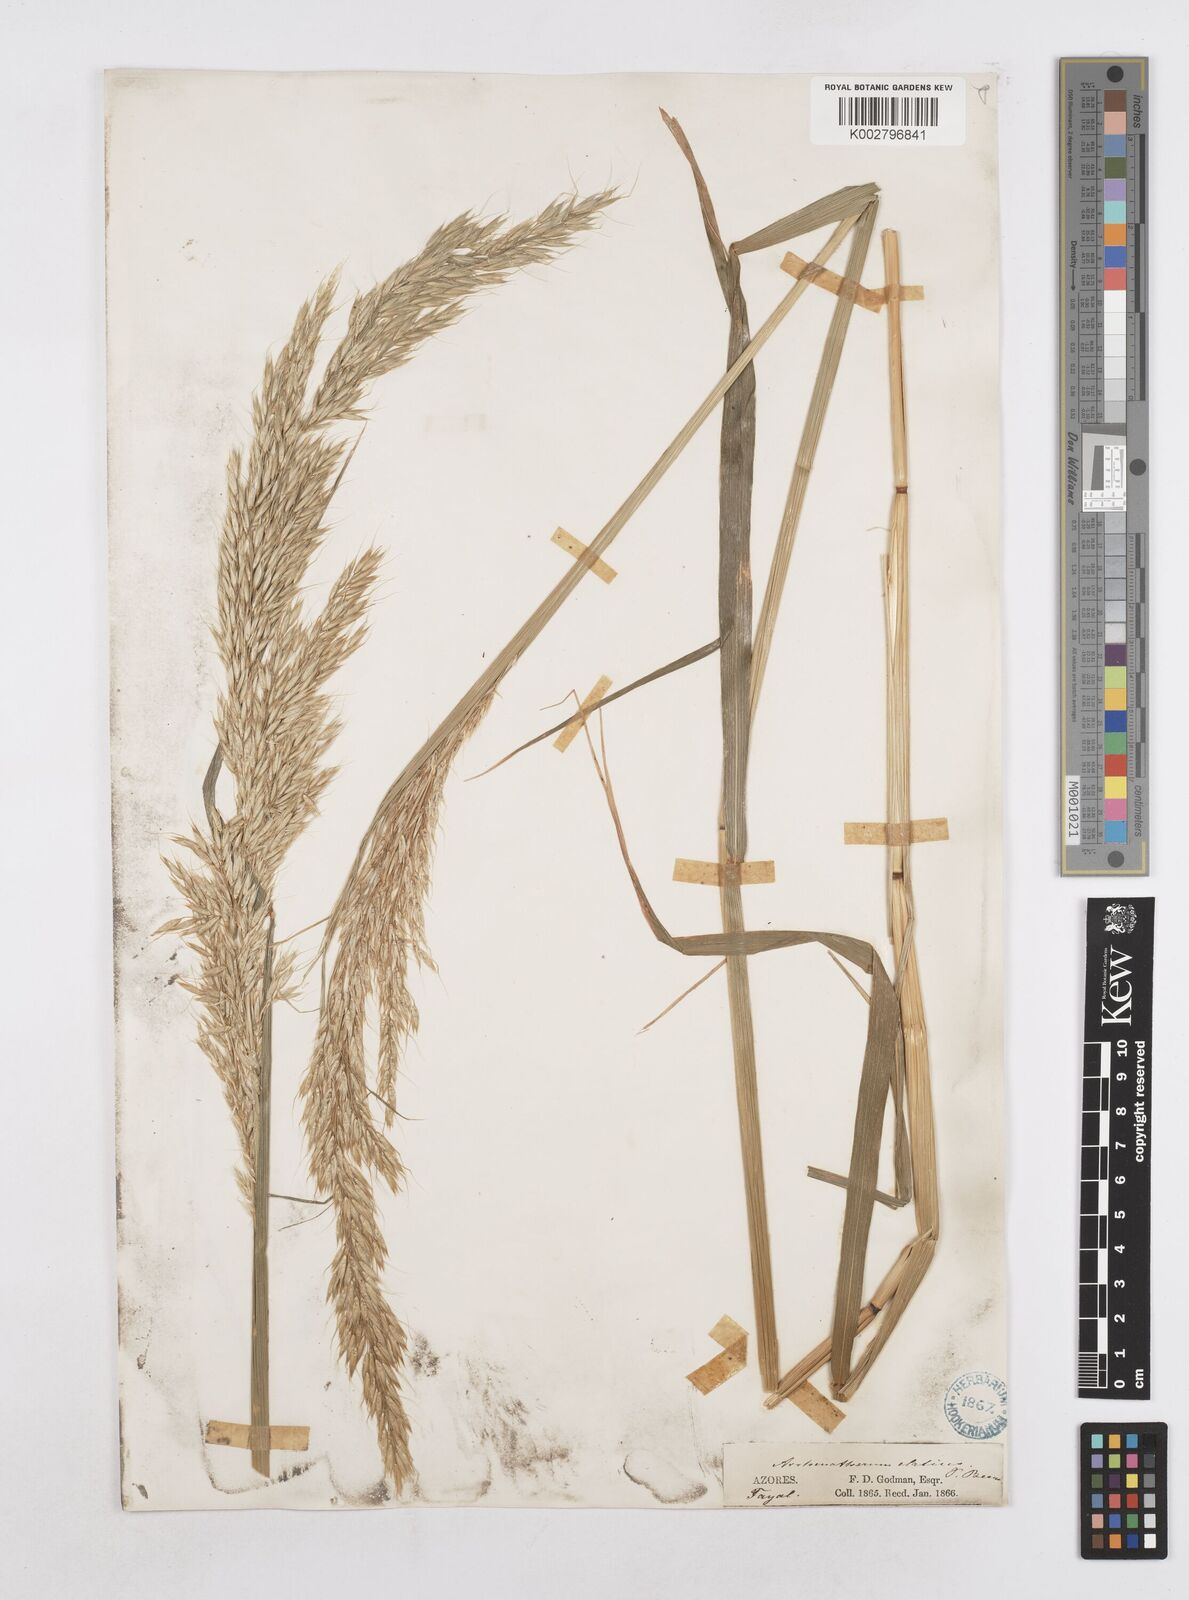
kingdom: Plantae
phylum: Tracheophyta
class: Liliopsida
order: Poales
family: Poaceae
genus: Arrhenatherum
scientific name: Arrhenatherum elatius
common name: Tall oatgrass
